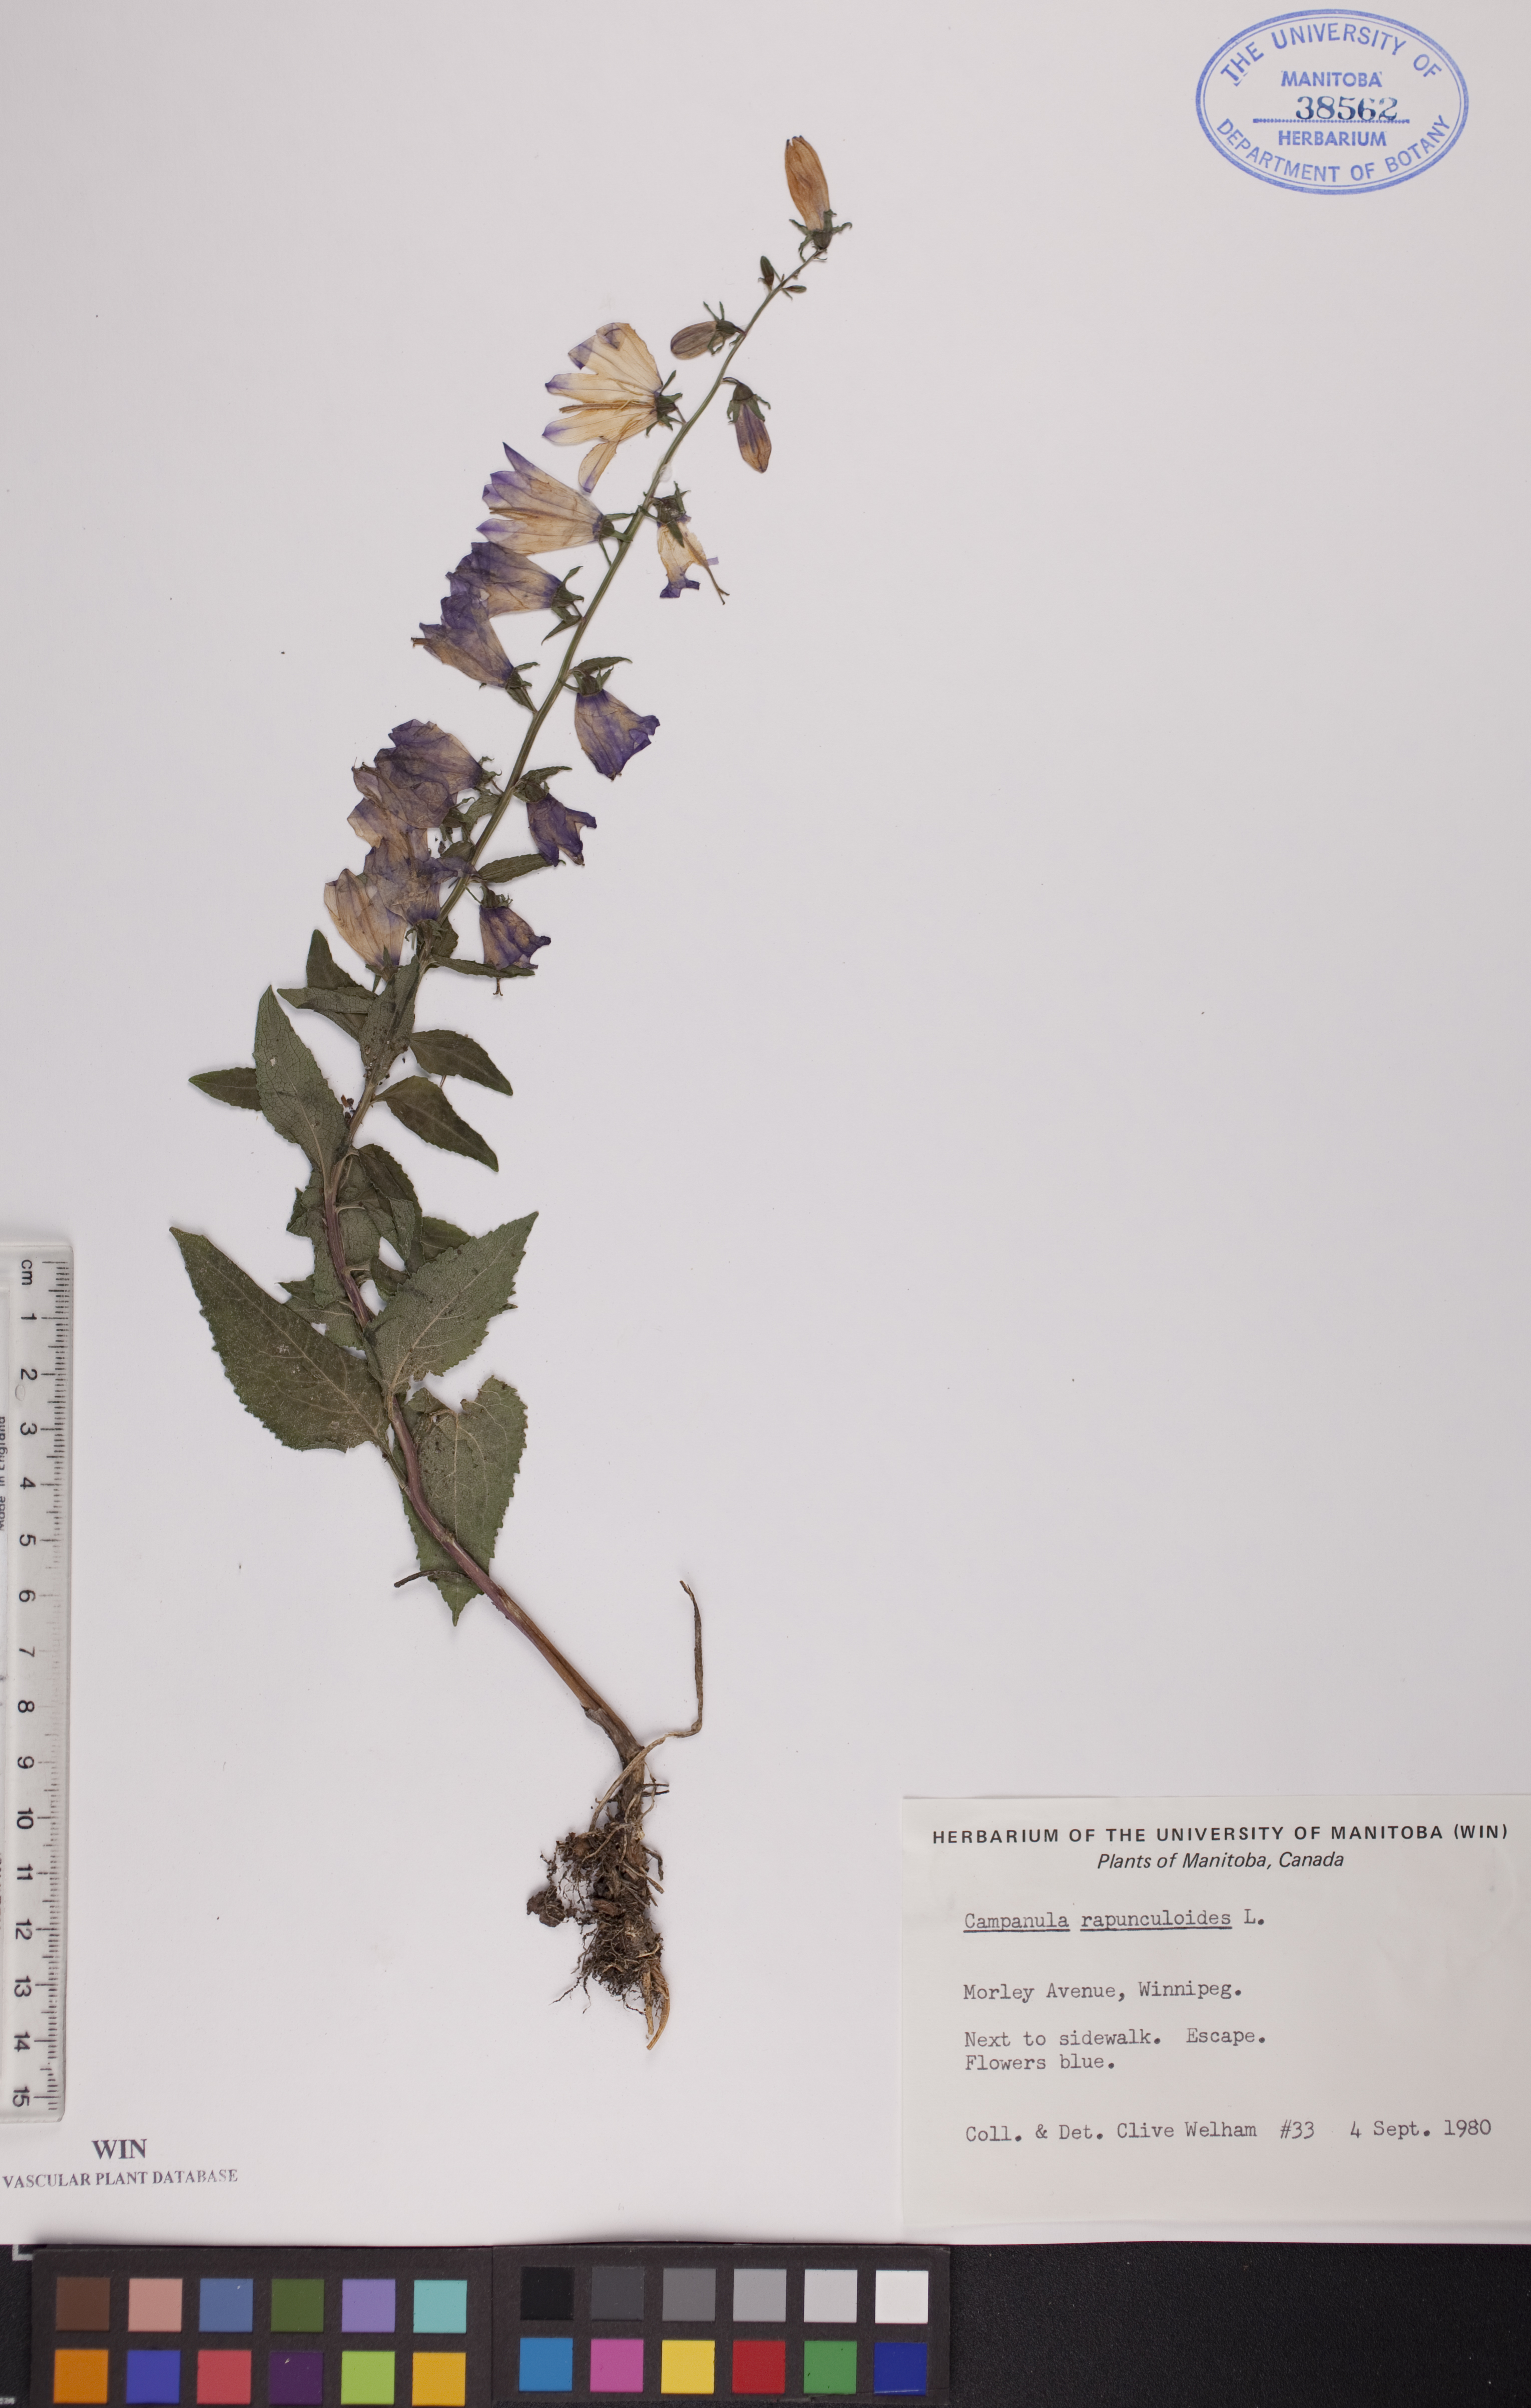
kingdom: Plantae
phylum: Tracheophyta
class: Magnoliopsida
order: Asterales
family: Campanulaceae
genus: Campanula
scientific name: Campanula rapunculoides
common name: Creeping bellflower
